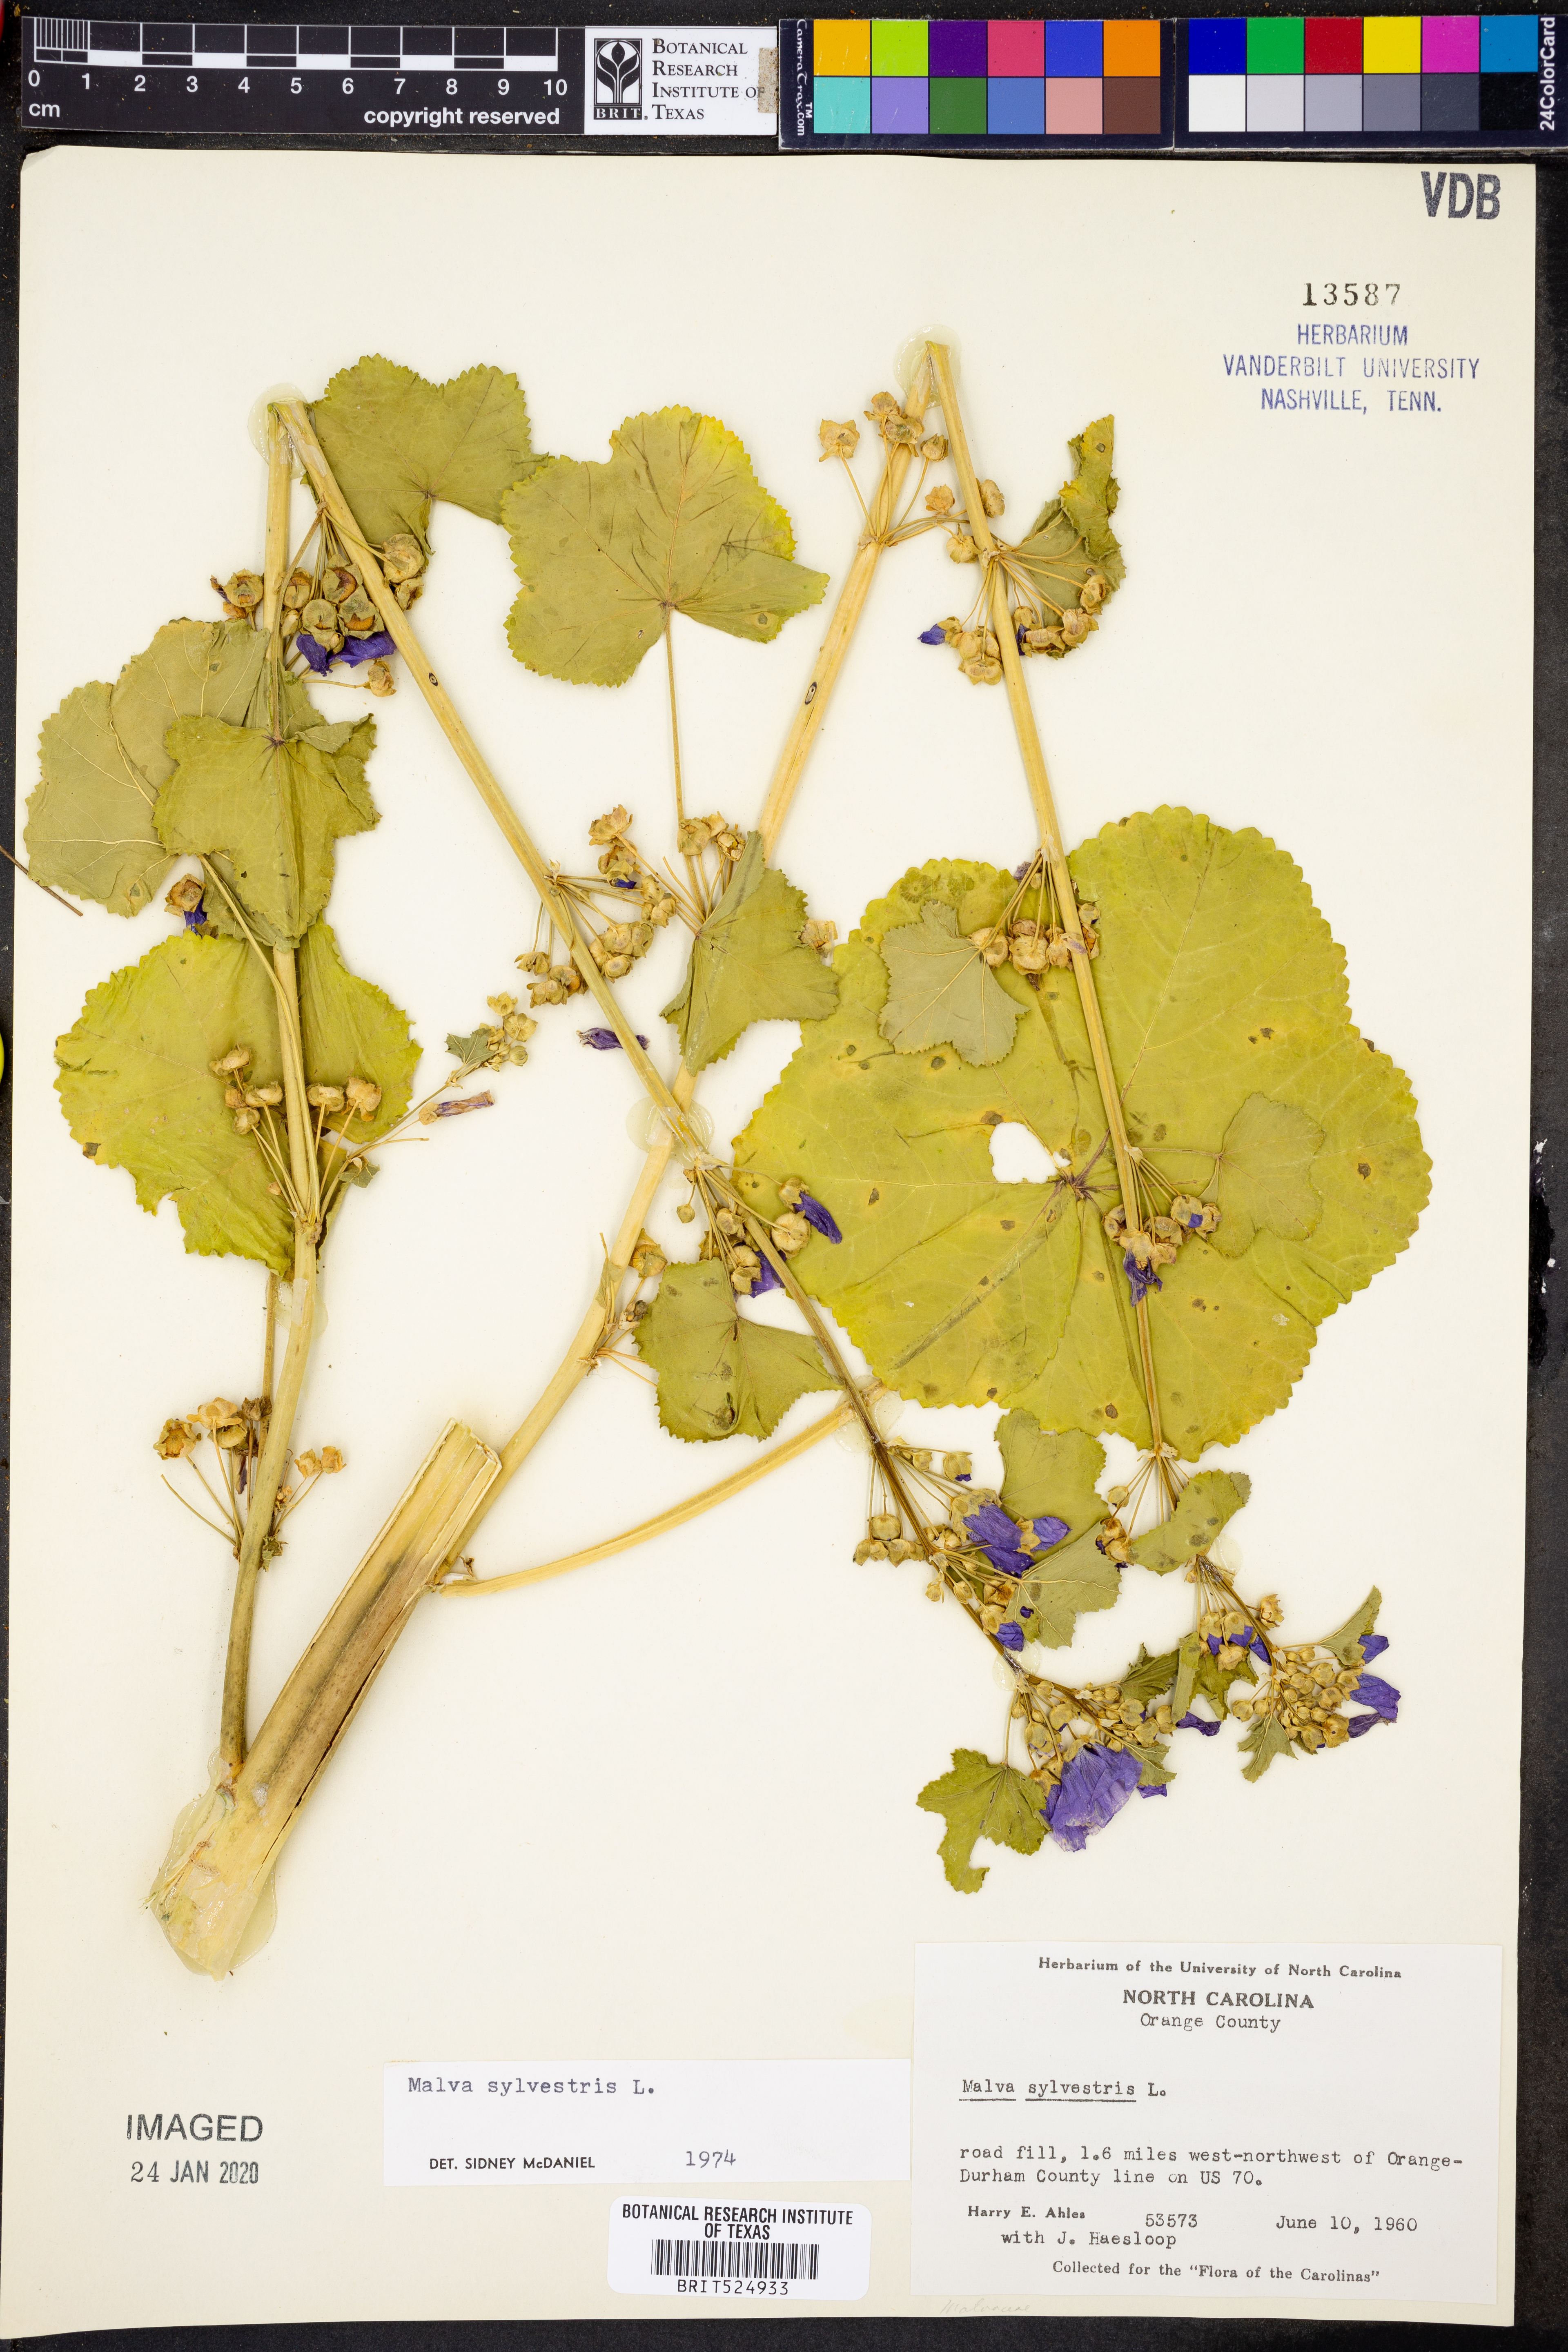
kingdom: Plantae
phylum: Tracheophyta
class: Magnoliopsida
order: Malvales
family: Malvaceae
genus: Malva
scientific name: Malva sylvestris
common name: Common mallow
